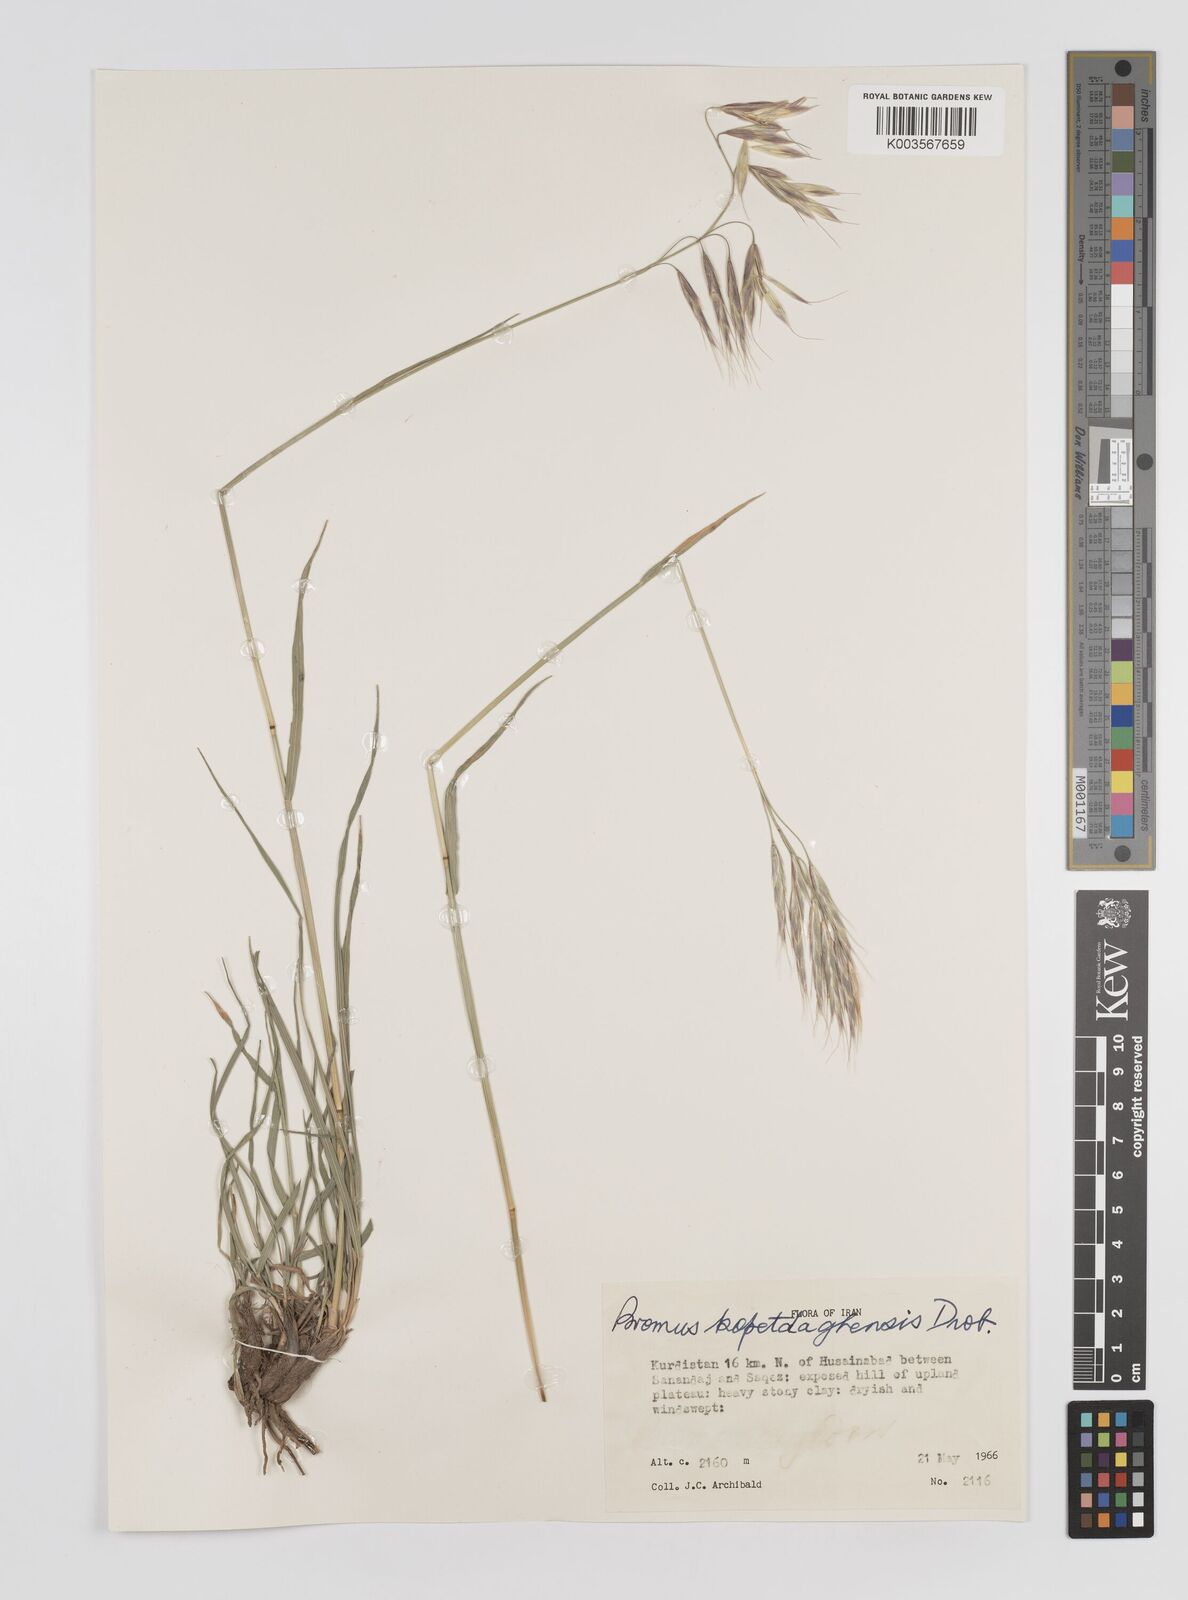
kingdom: Plantae
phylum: Tracheophyta
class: Liliopsida
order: Poales
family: Poaceae
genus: Bromus
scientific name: Bromus kopetdagensis
